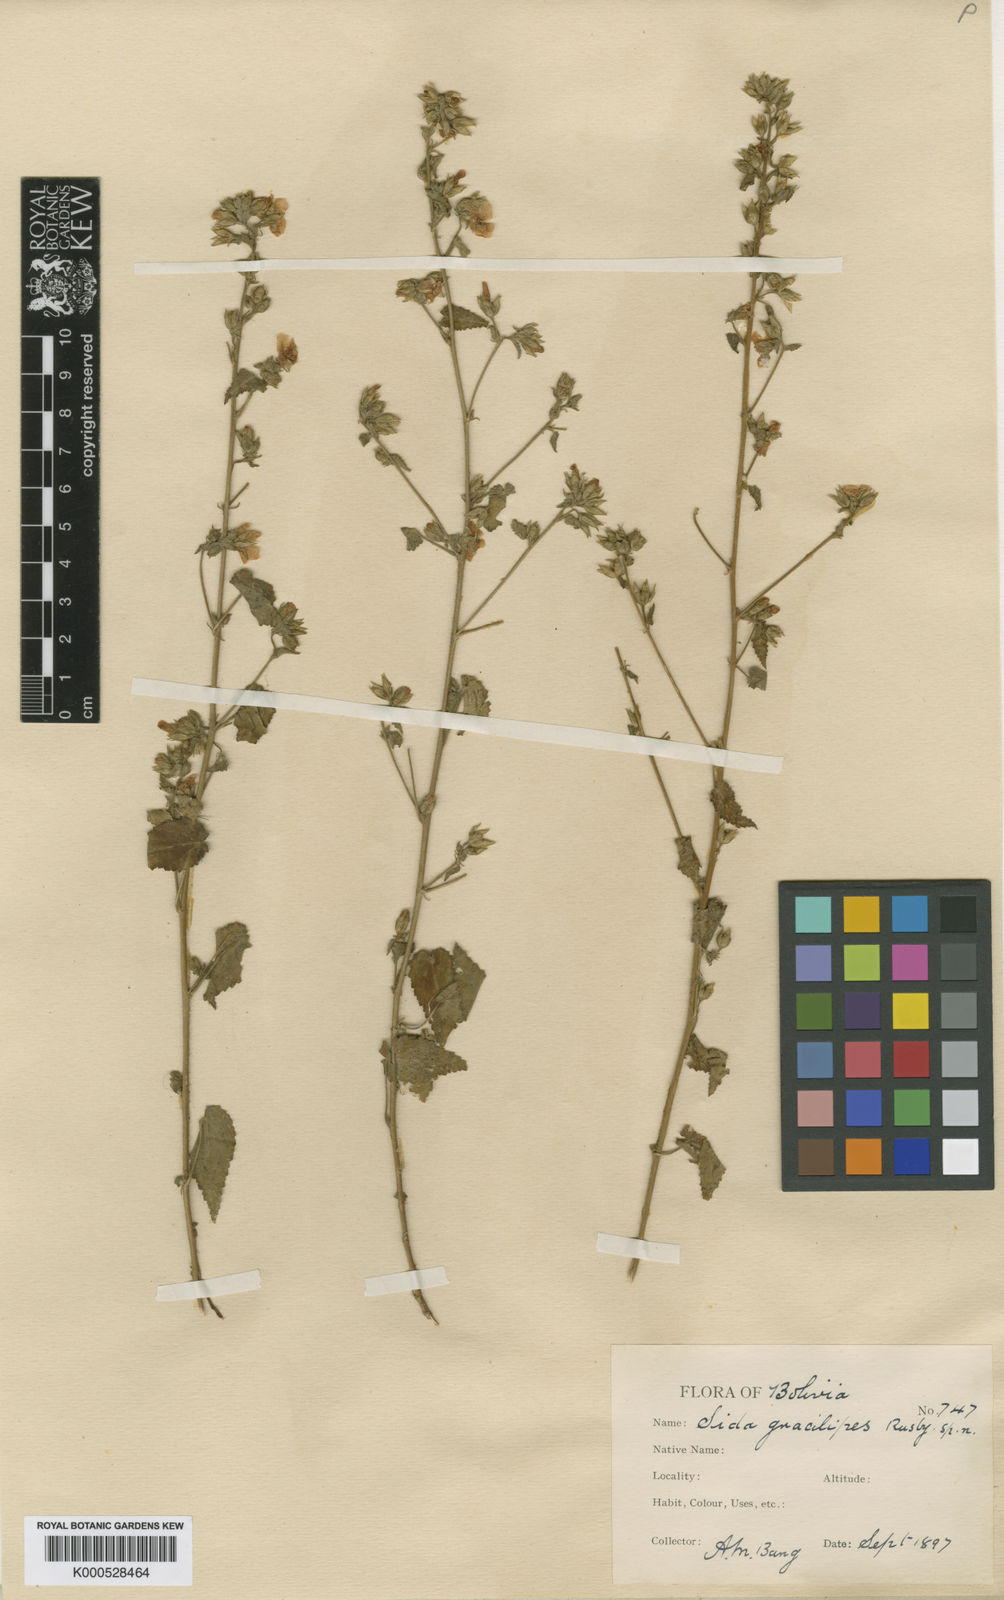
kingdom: Plantae
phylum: Tracheophyta
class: Magnoliopsida
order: Malvales
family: Malvaceae
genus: Sida
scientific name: Sida gracilipes
